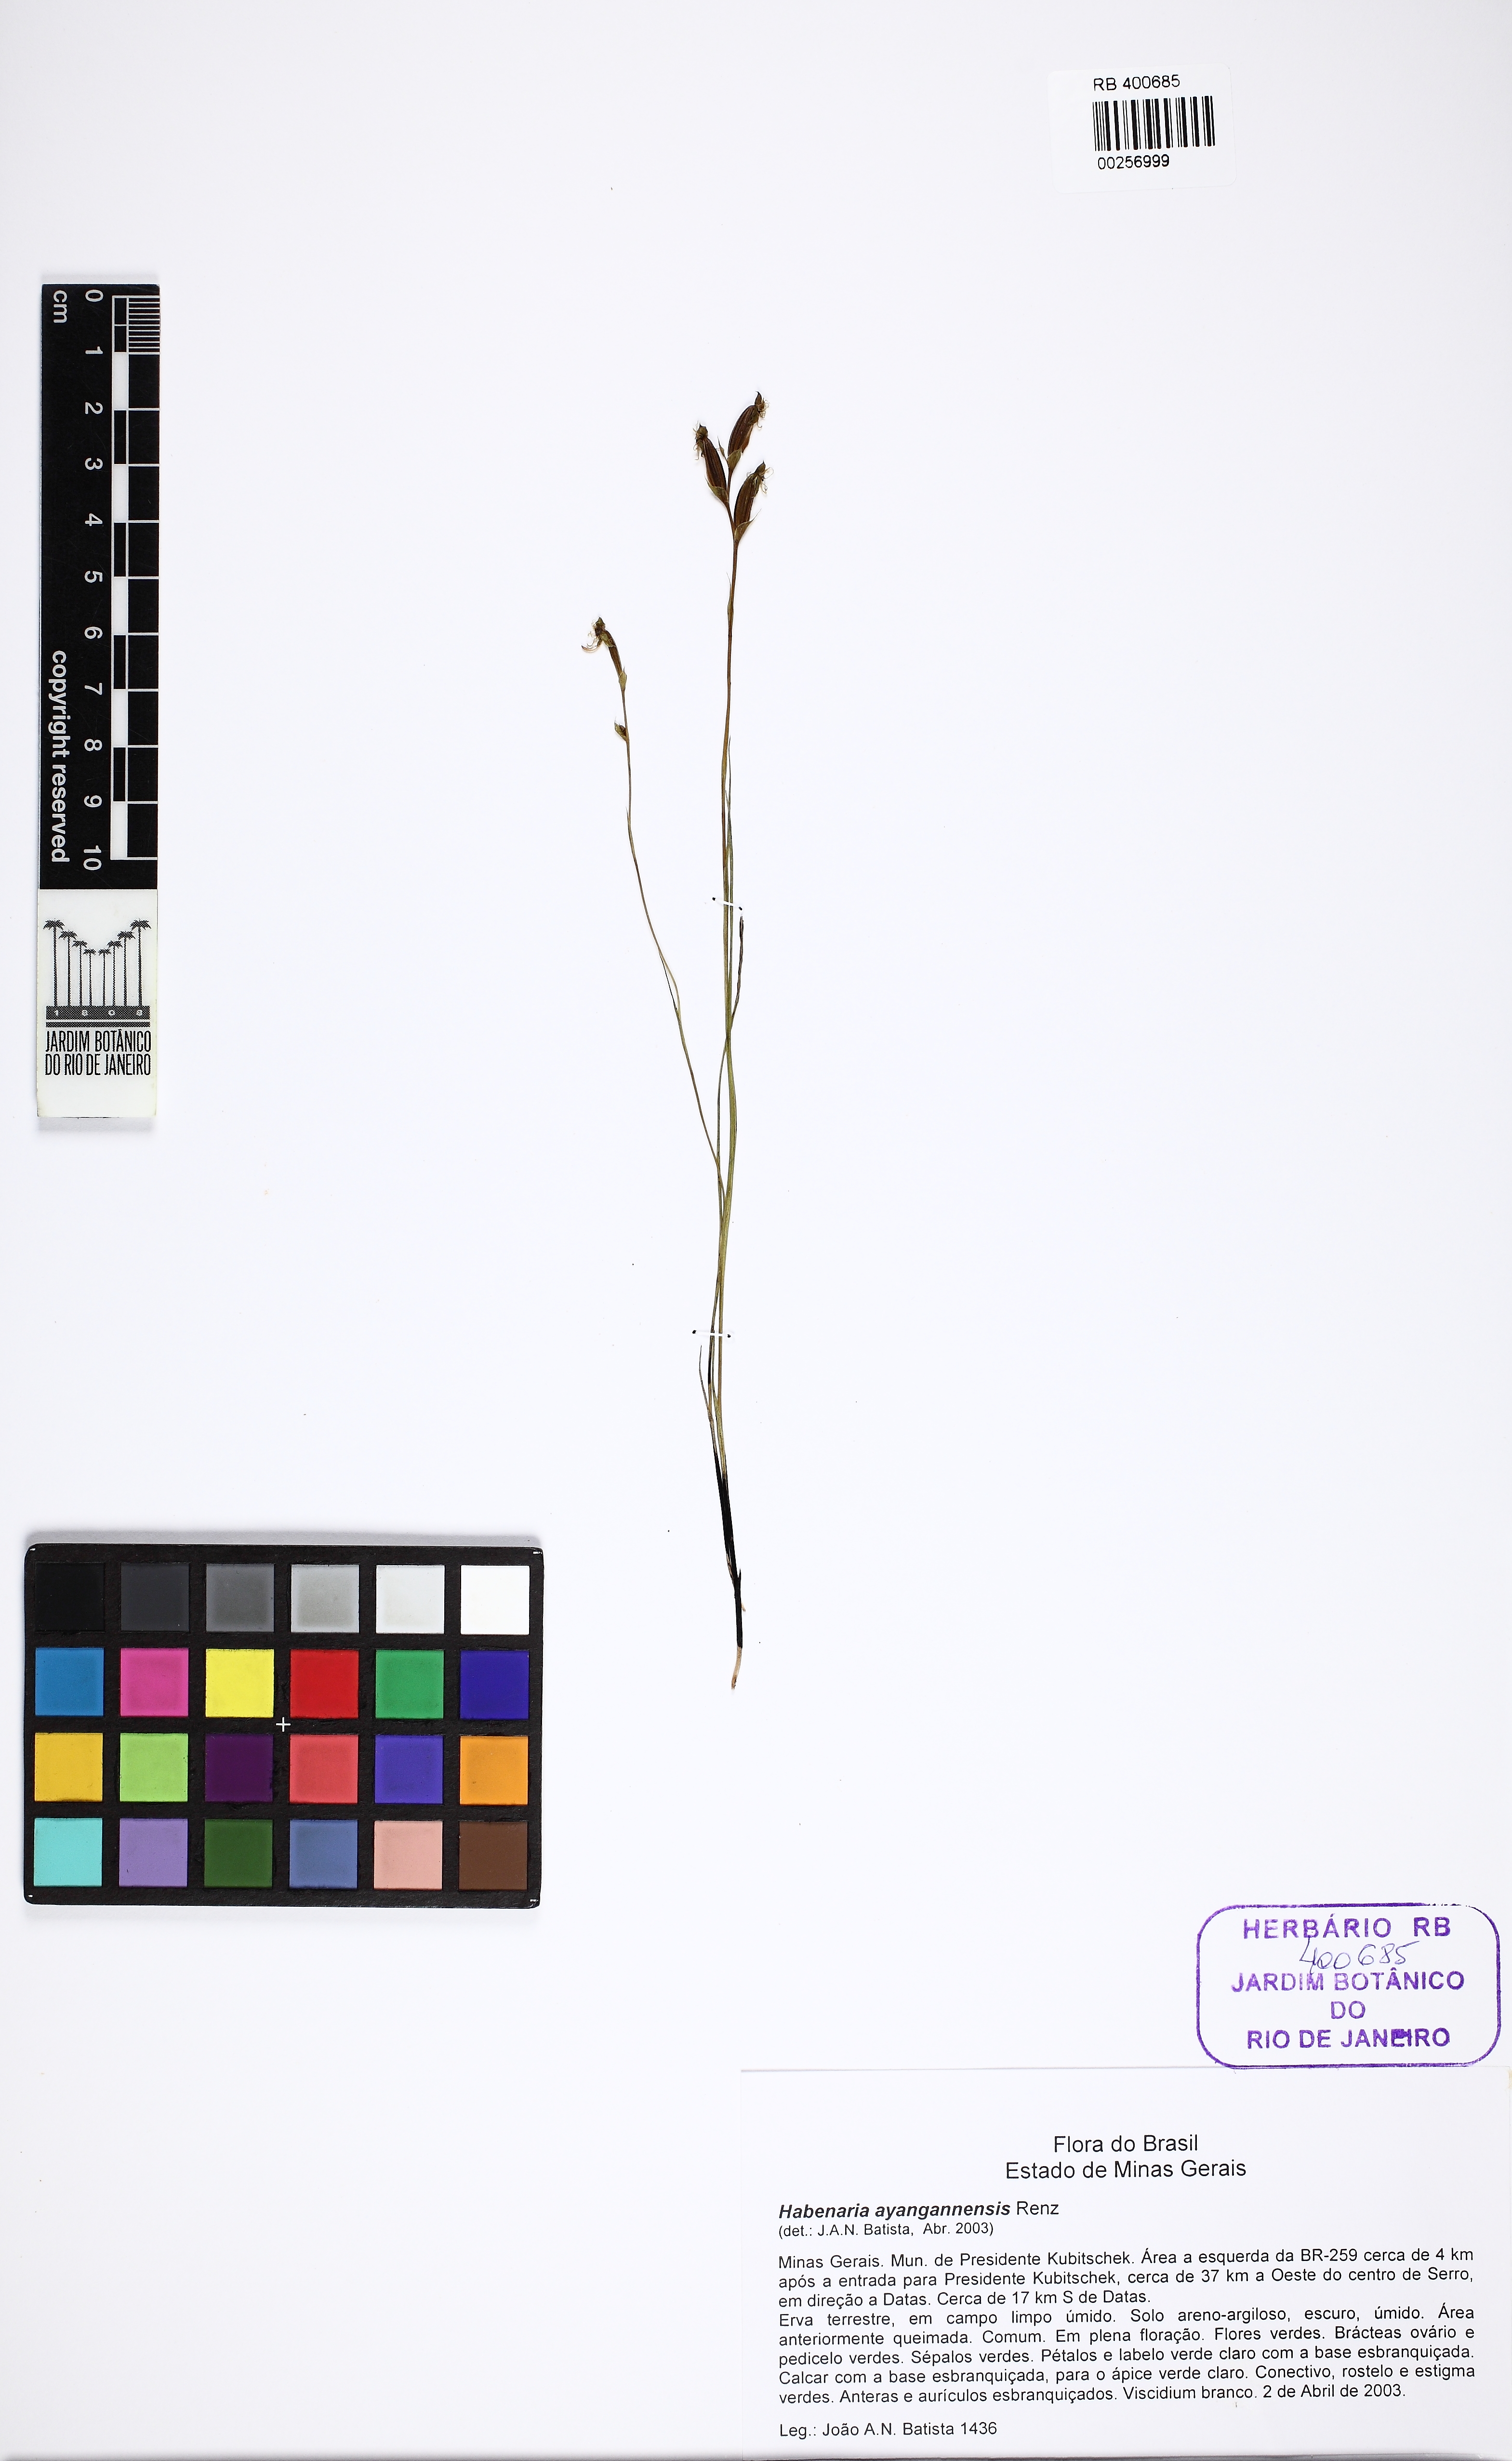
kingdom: Plantae
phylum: Tracheophyta
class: Liliopsida
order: Asparagales
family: Orchidaceae
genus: Habenaria
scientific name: Habenaria ayangannensis
